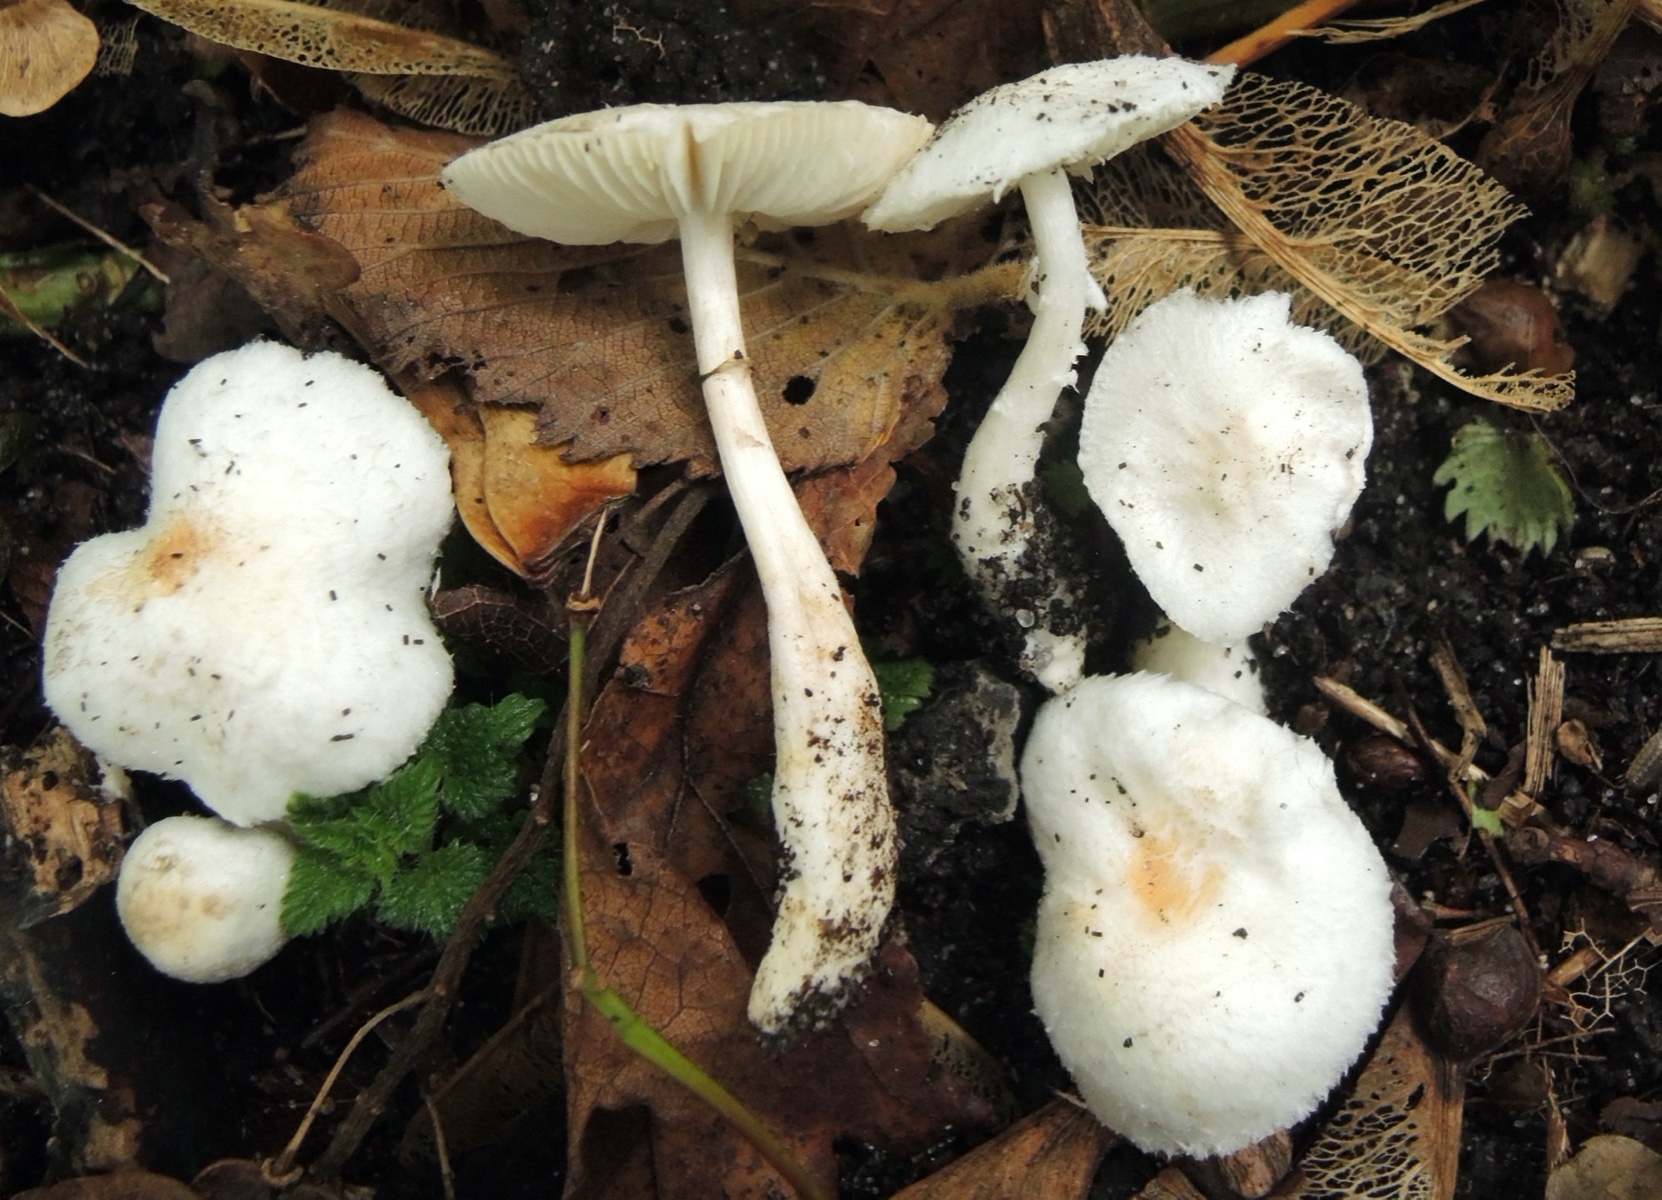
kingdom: Fungi
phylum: Basidiomycota
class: Agaricomycetes
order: Agaricales
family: Agaricaceae
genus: Leucoagaricus
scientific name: Leucoagaricus sericifer
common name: hvid silkehat
